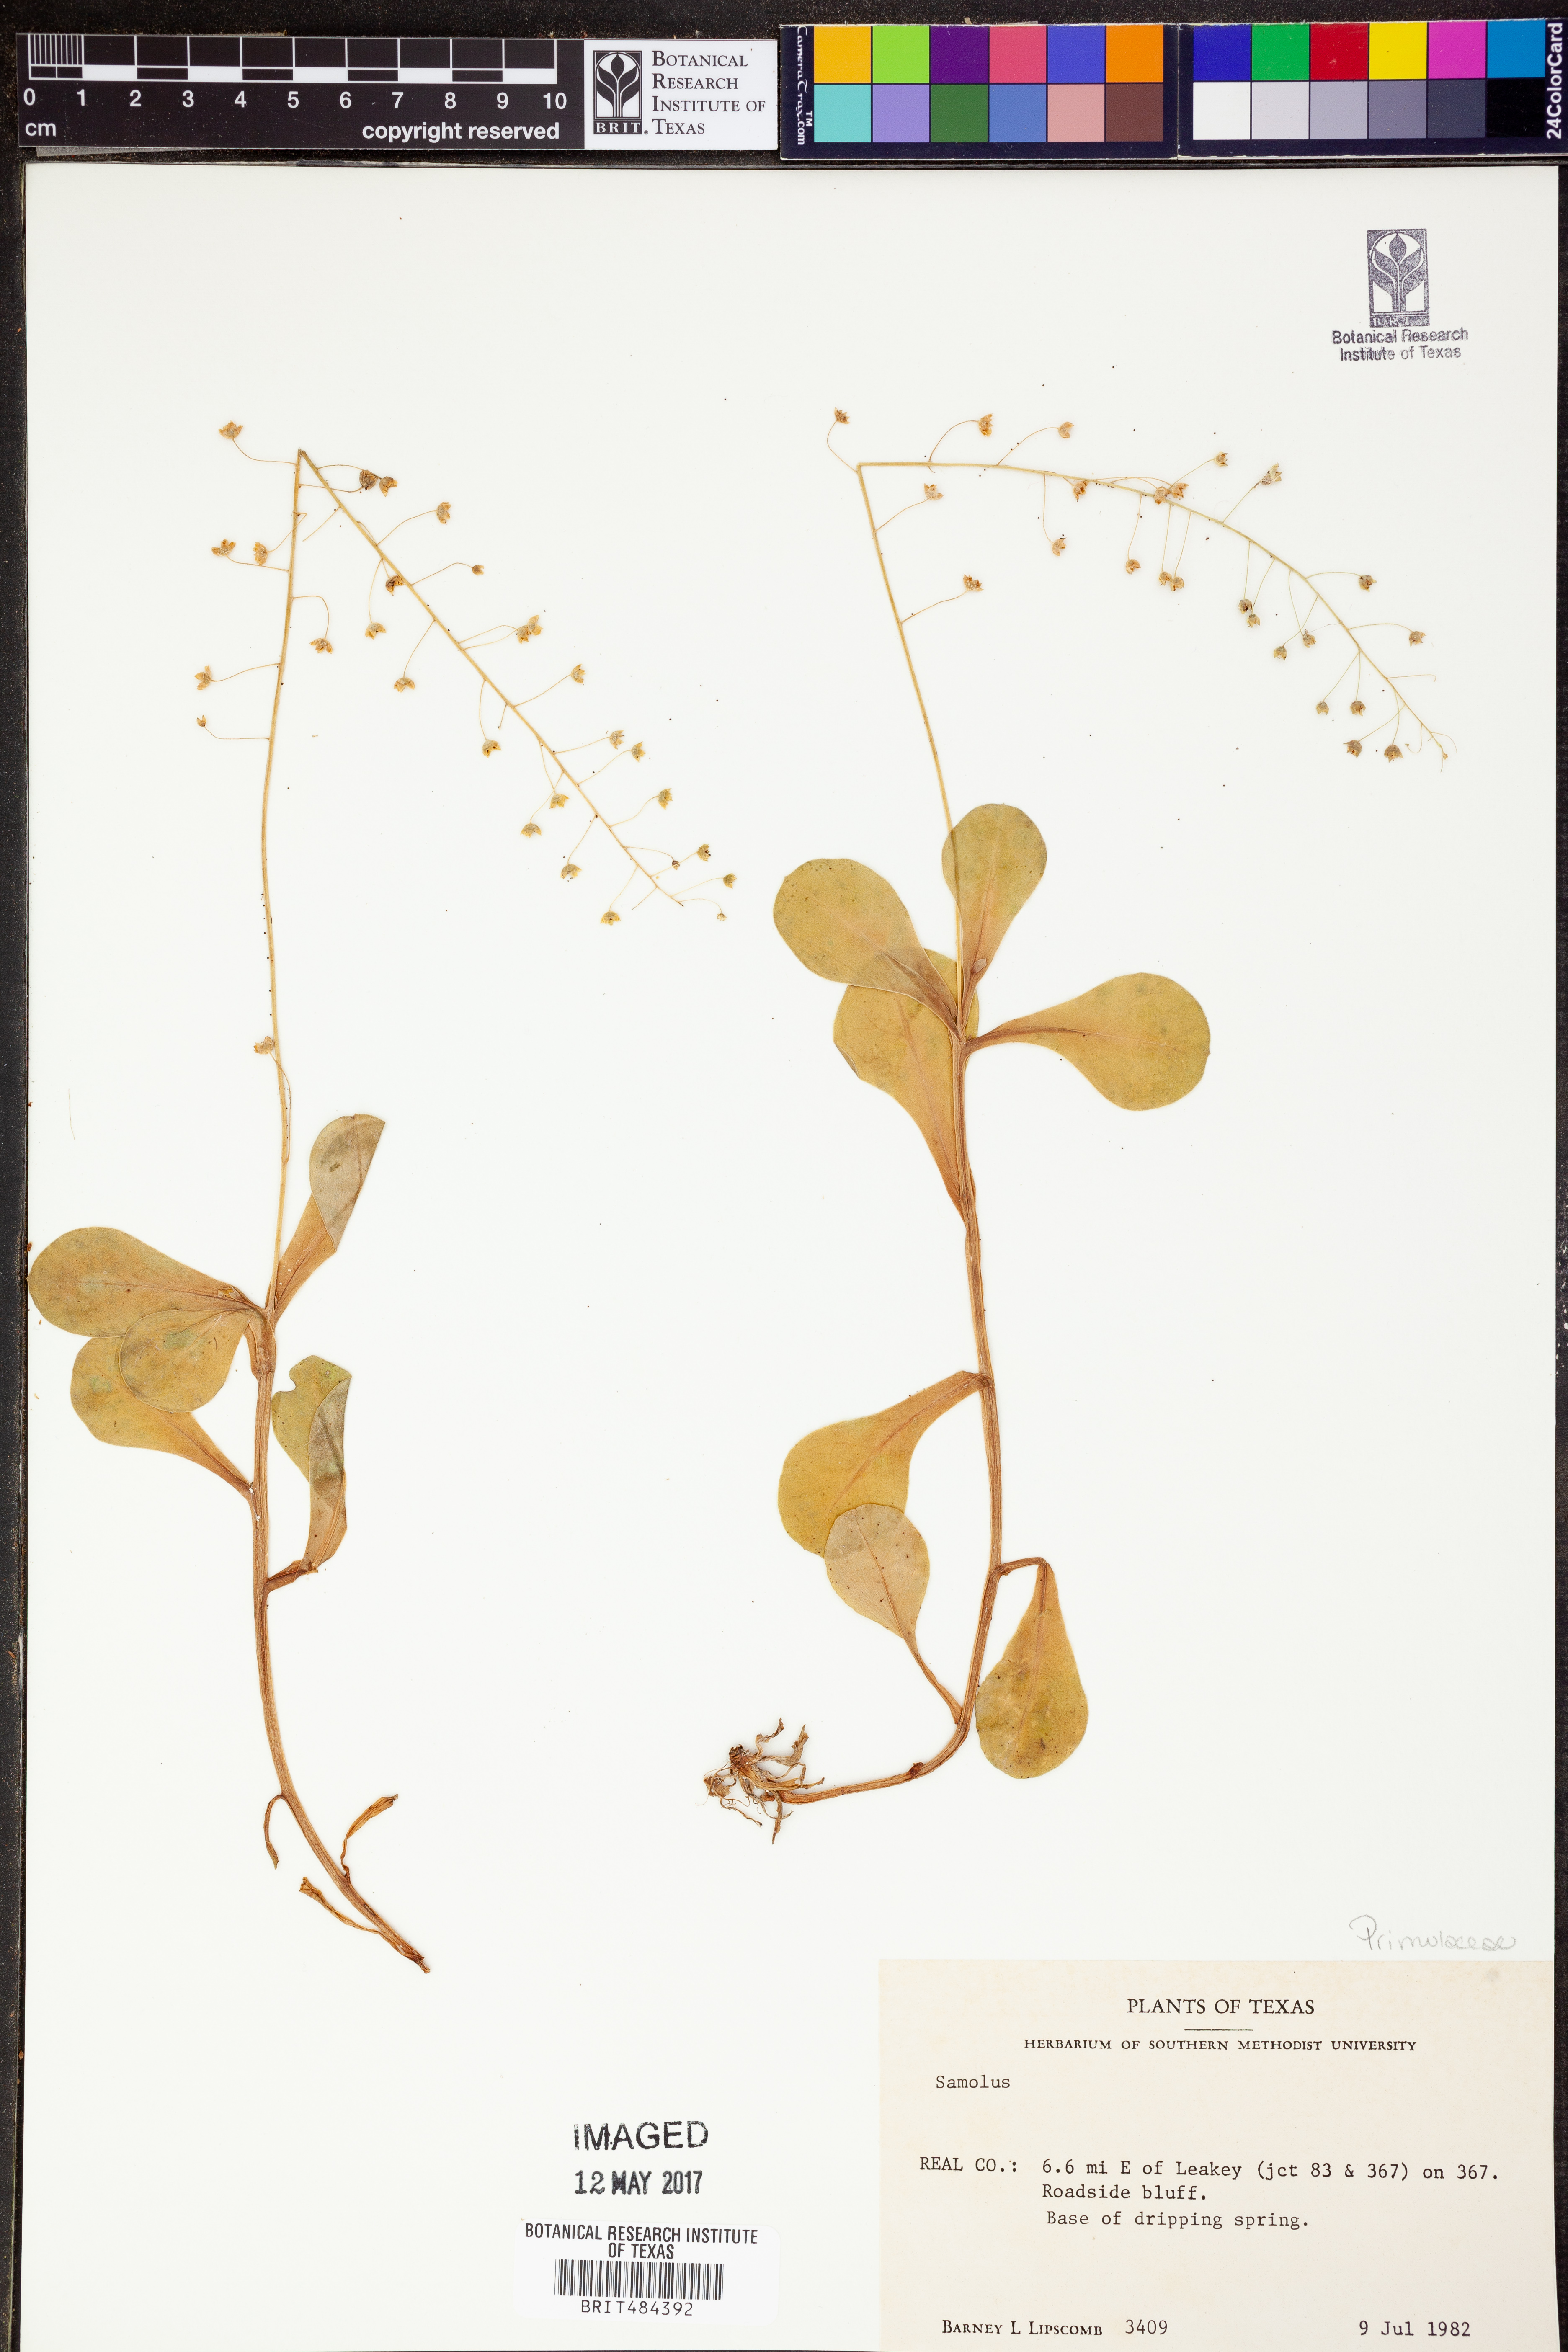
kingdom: Plantae
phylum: Tracheophyta
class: Magnoliopsida
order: Ericales
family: Primulaceae
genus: Samolus
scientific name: Samolus
